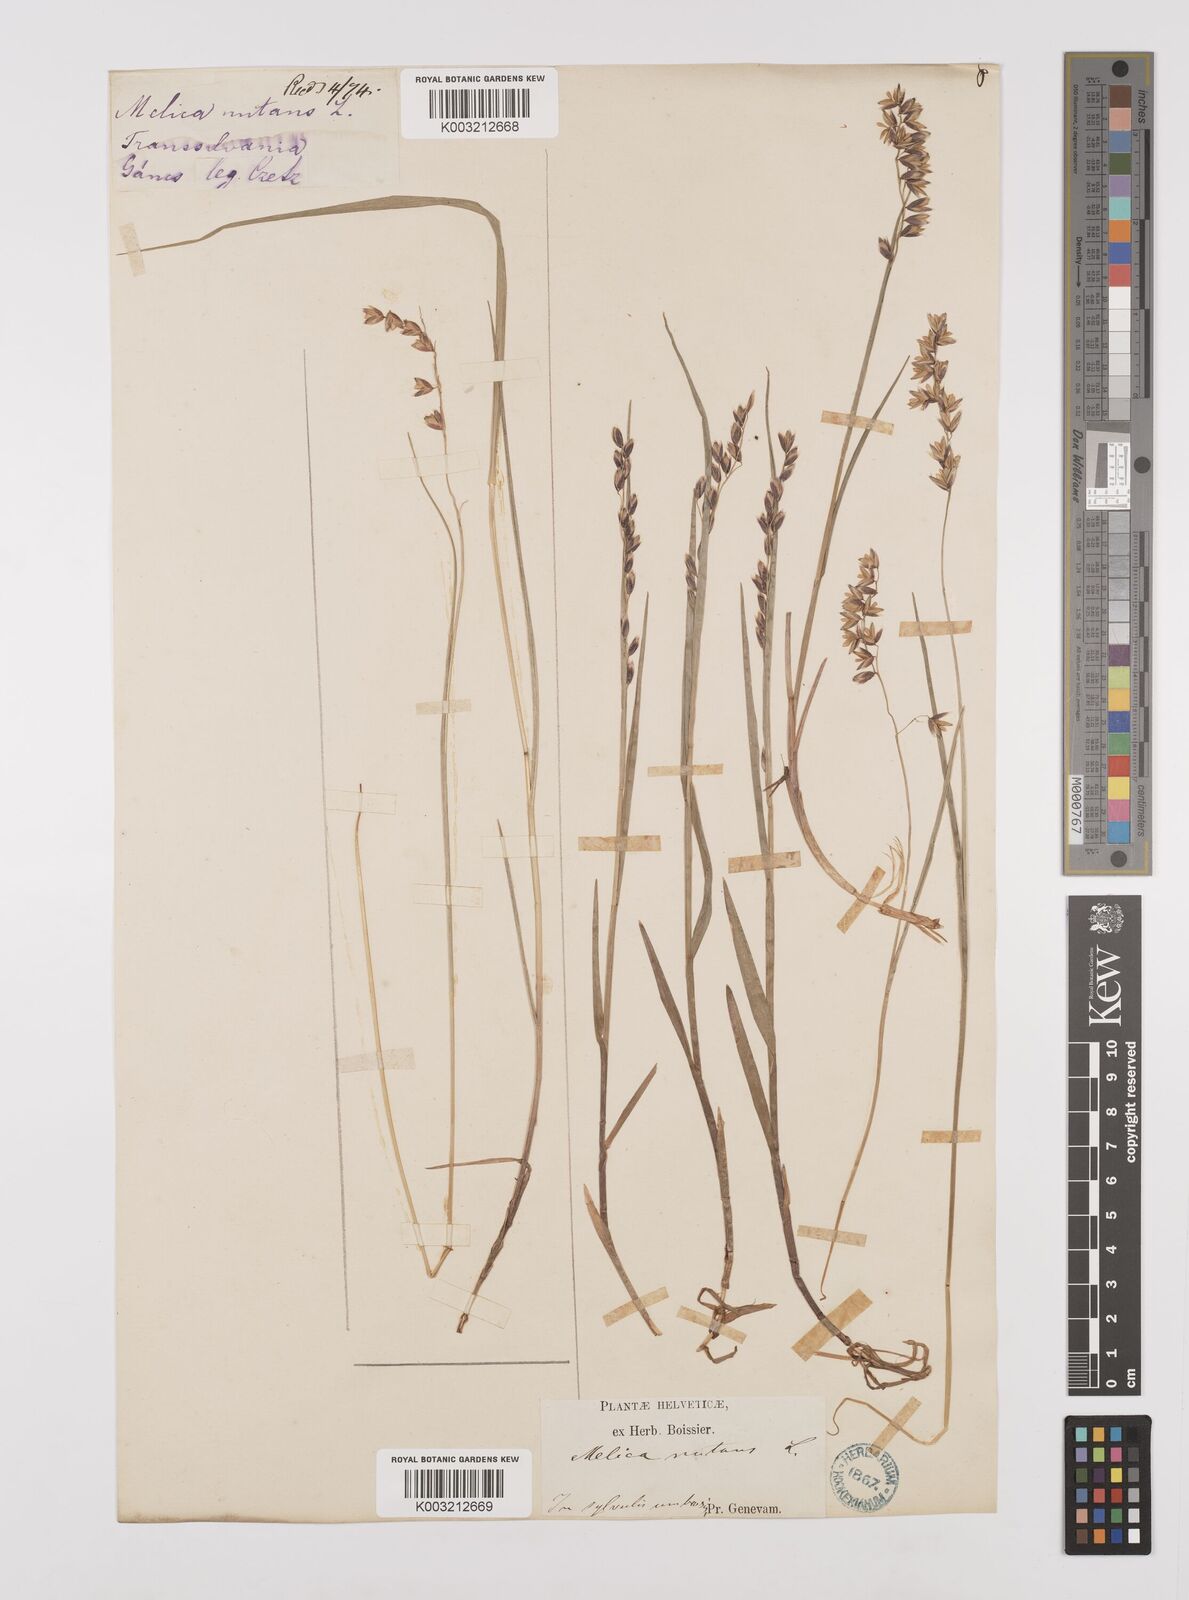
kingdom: Plantae
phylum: Tracheophyta
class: Liliopsida
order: Poales
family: Poaceae
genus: Melica
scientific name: Melica
